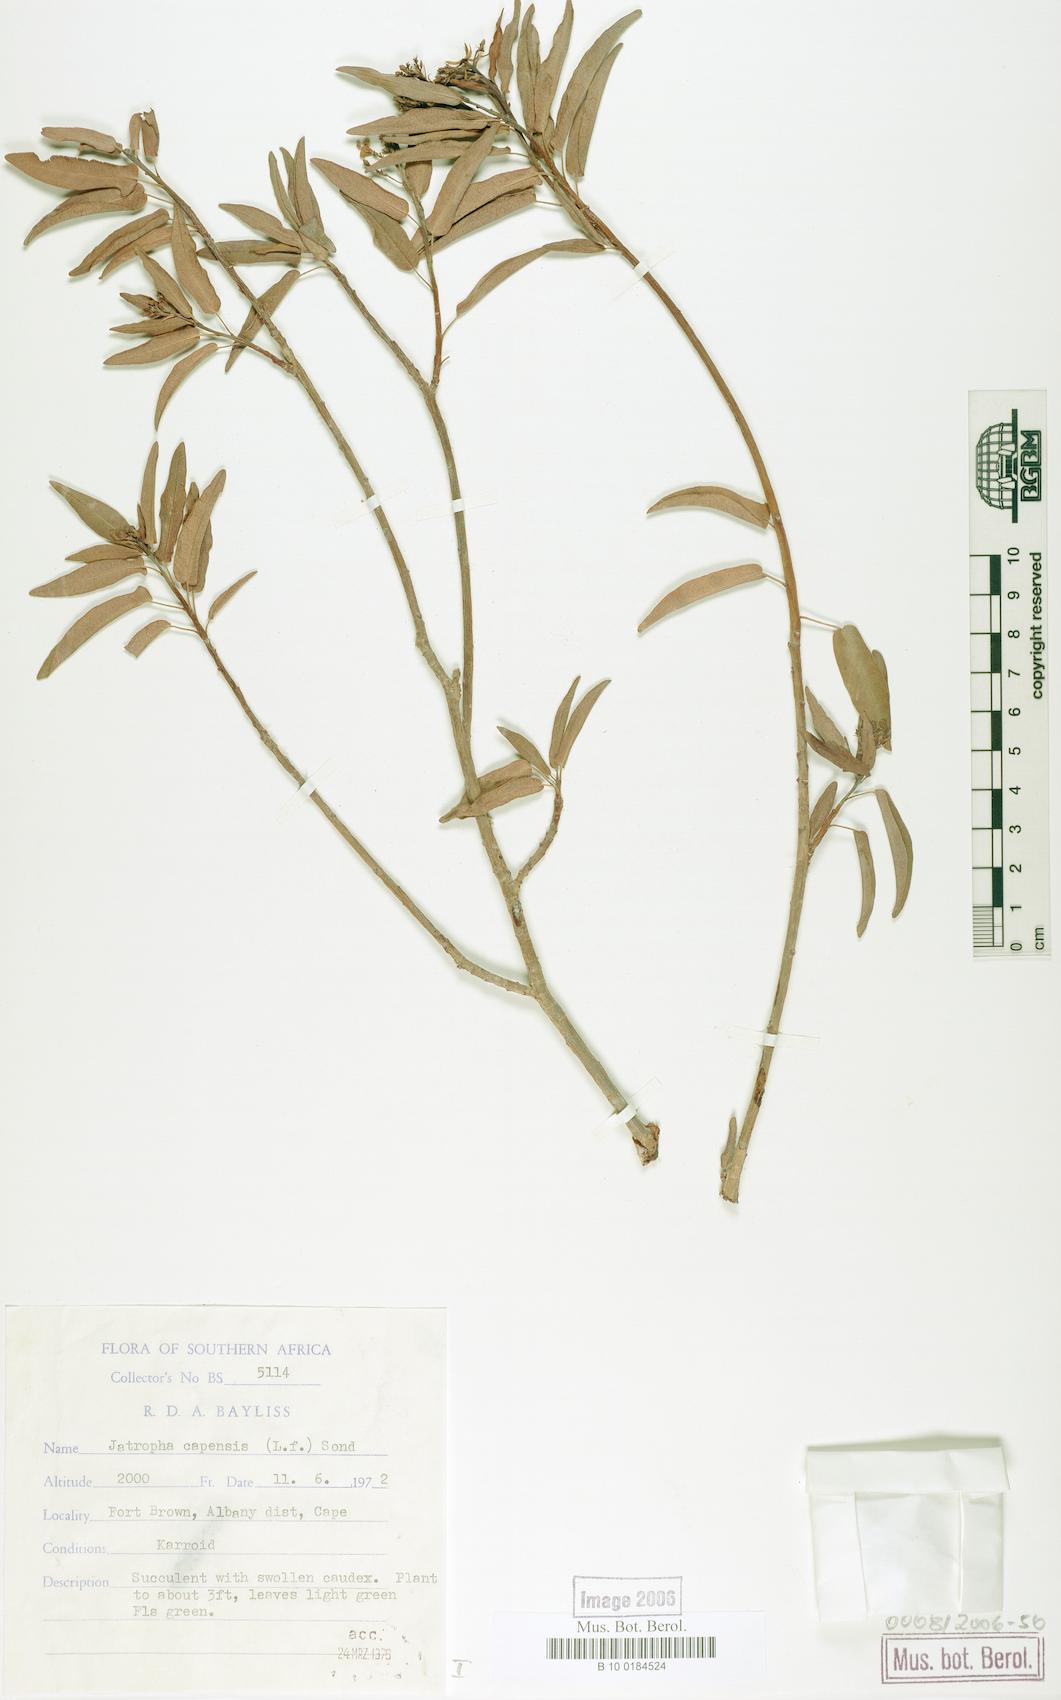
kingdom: Plantae
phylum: Tracheophyta
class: Magnoliopsida
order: Malpighiales
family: Euphorbiaceae
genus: Jatropha
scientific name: Jatropha capensis
